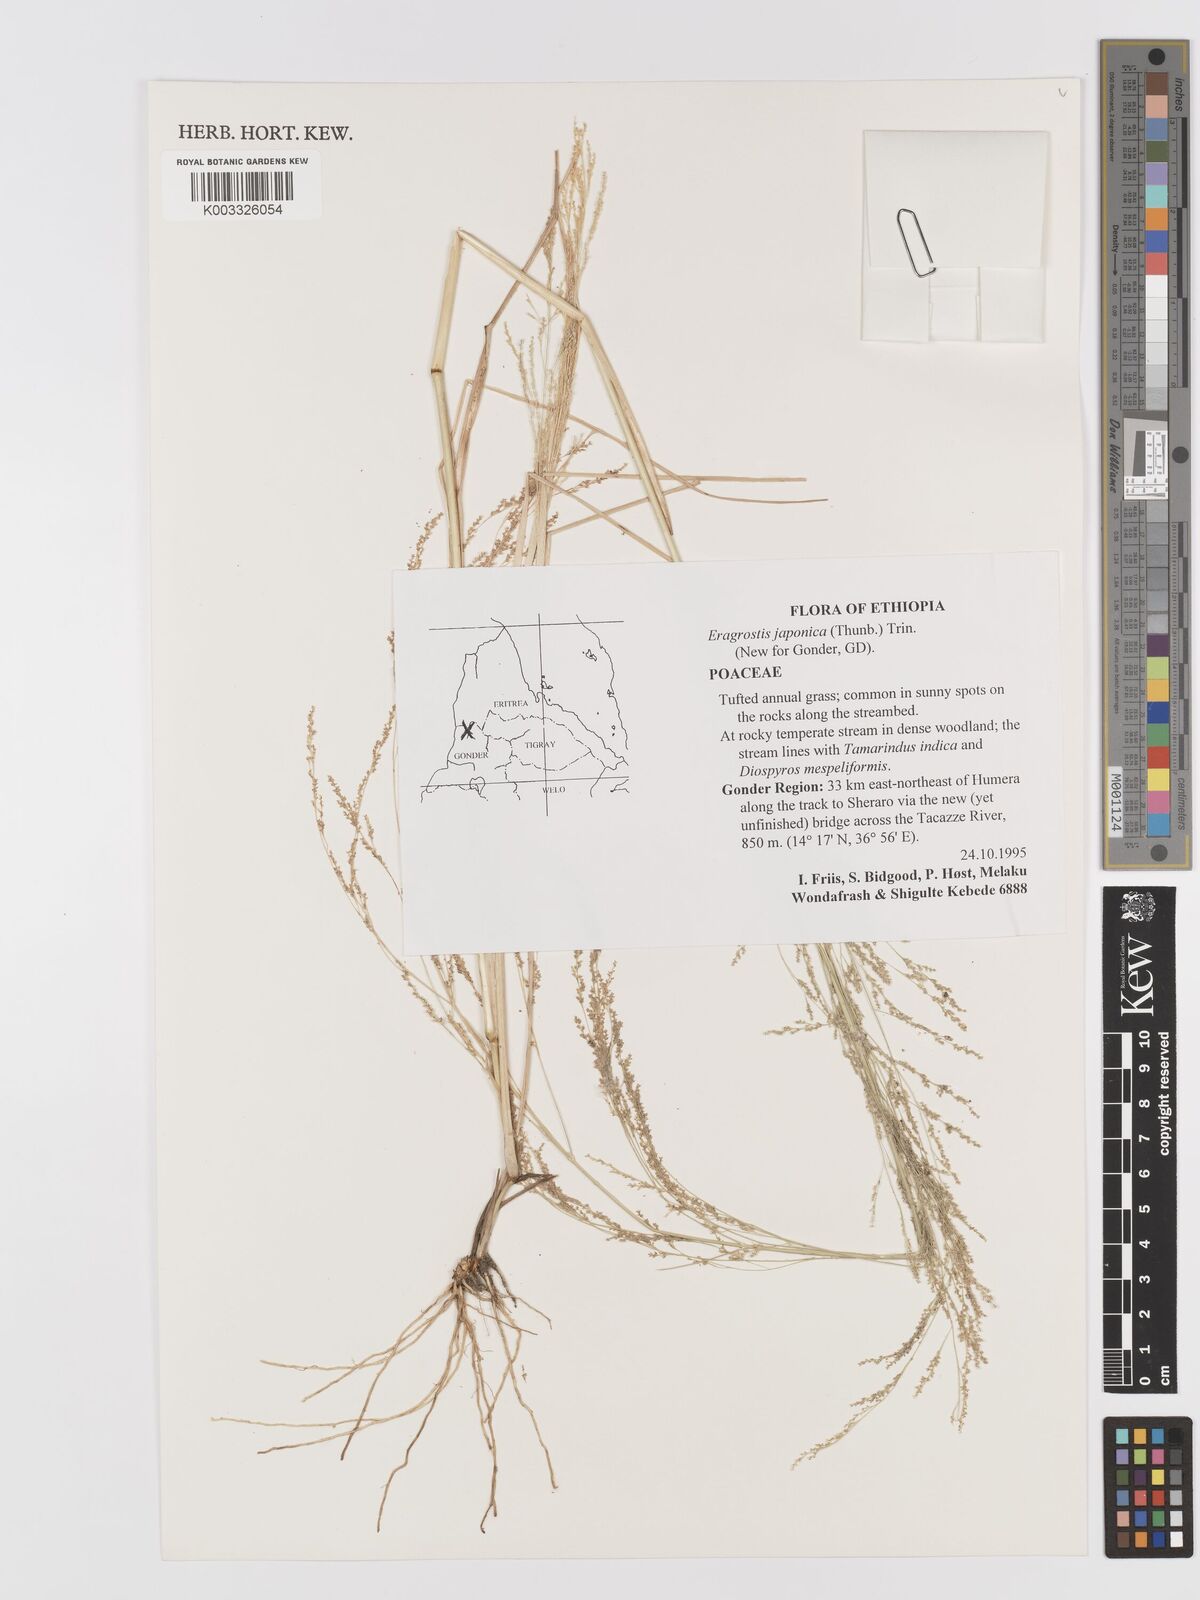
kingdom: Plantae
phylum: Tracheophyta
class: Liliopsida
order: Poales
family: Poaceae
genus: Eragrostis
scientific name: Eragrostis japonica
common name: Pond lovegrass
